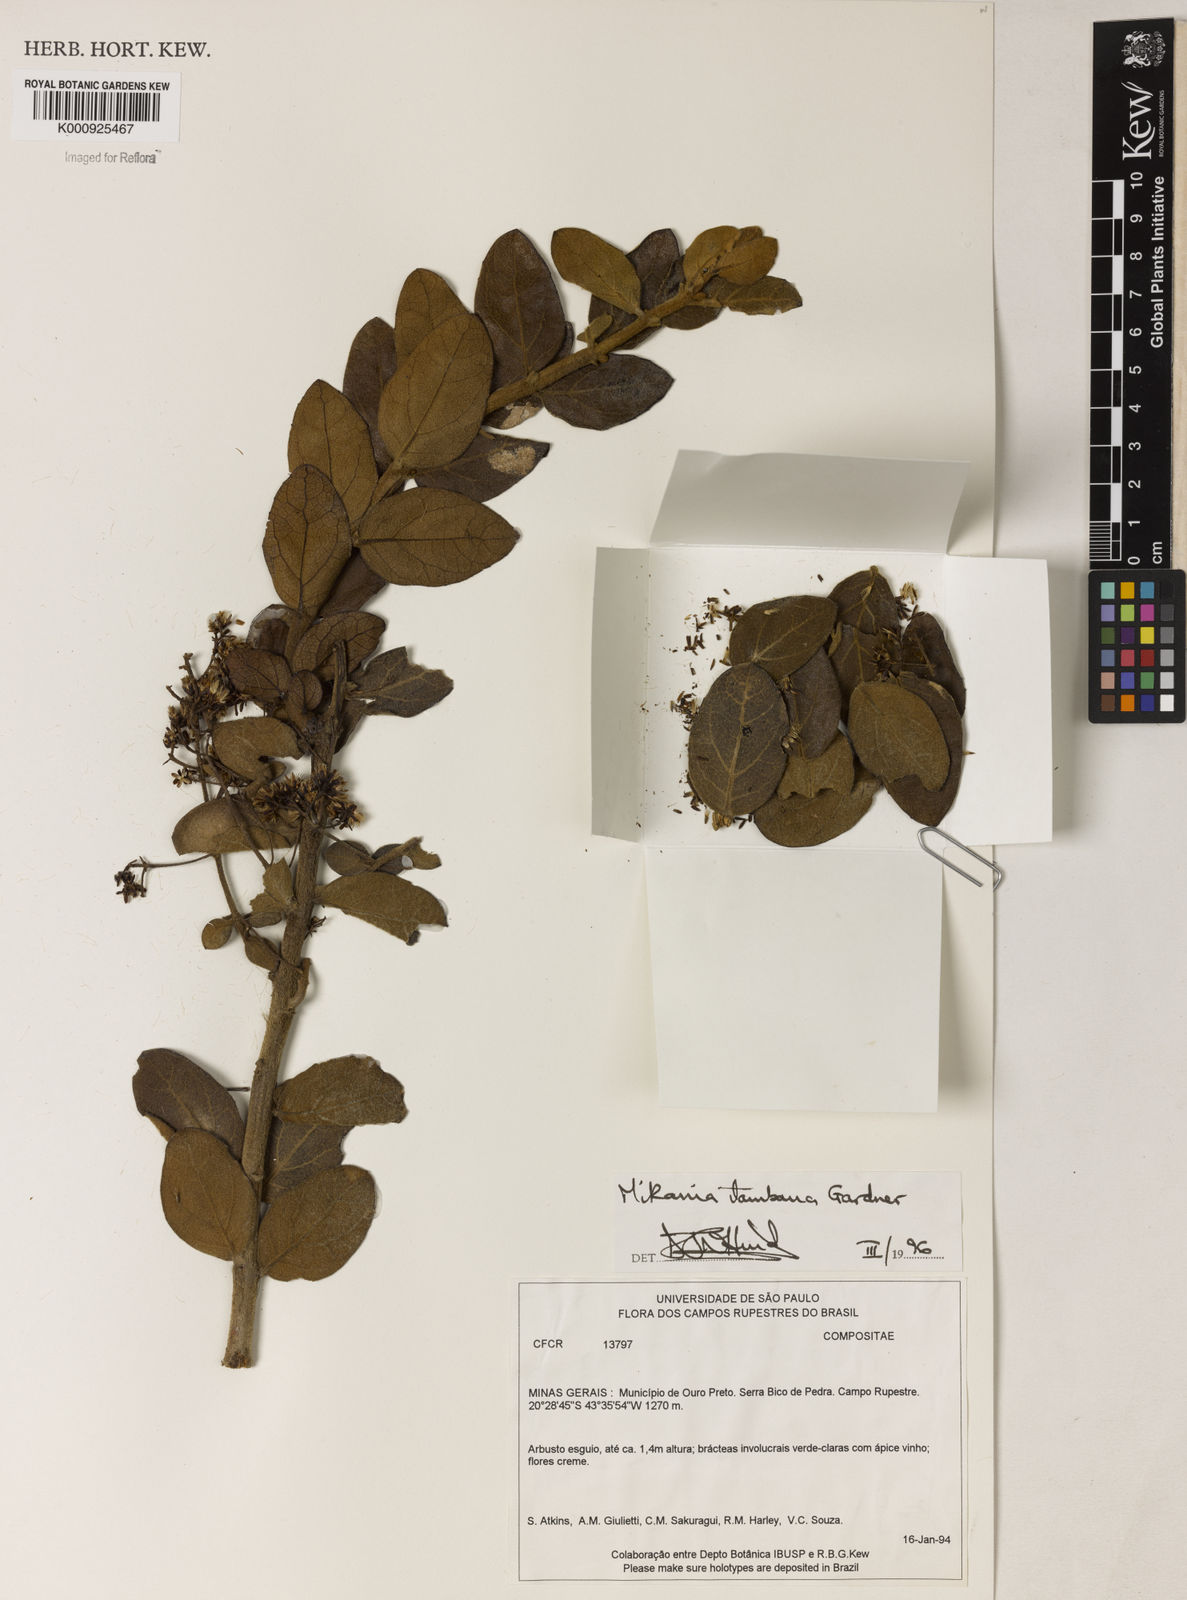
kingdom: Plantae
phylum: Tracheophyta
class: Magnoliopsida
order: Asterales
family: Asteraceae
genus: Mikania
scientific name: Mikania itambana
